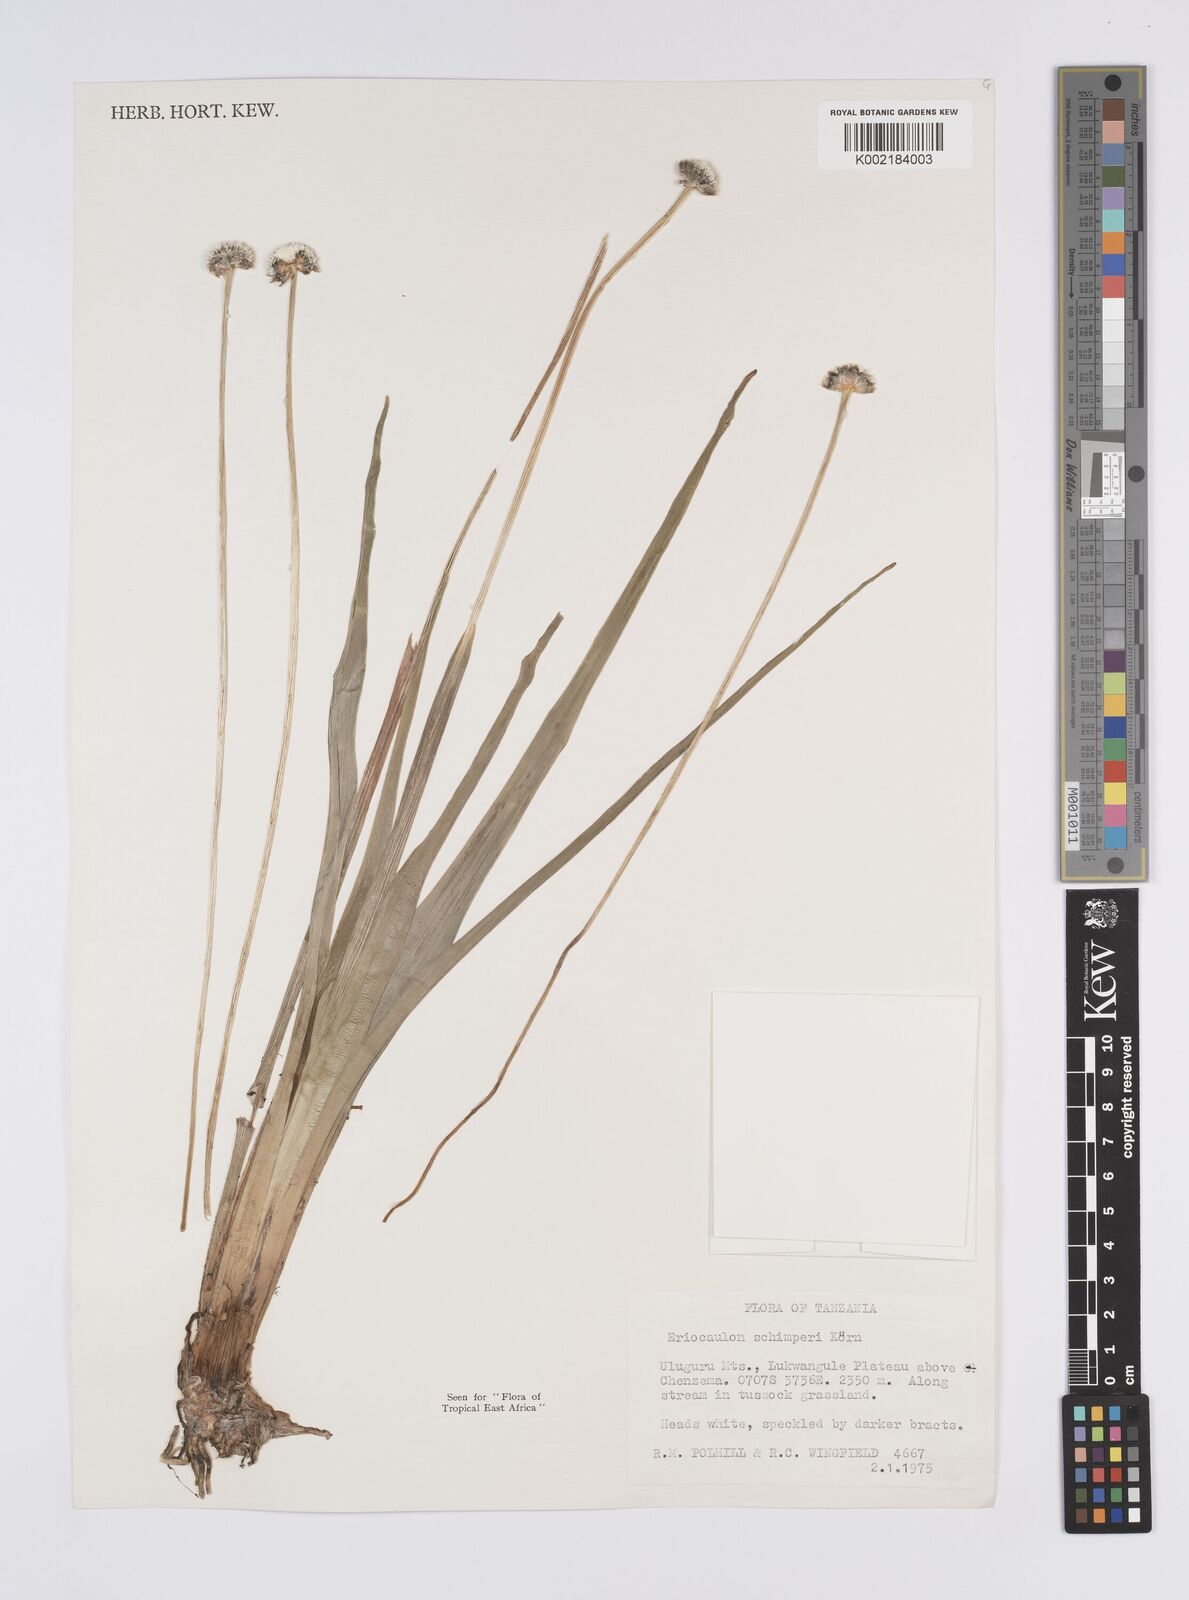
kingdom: Plantae
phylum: Tracheophyta
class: Liliopsida
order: Poales
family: Eriocaulaceae
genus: Eriocaulon
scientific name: Eriocaulon mesanthemoides
